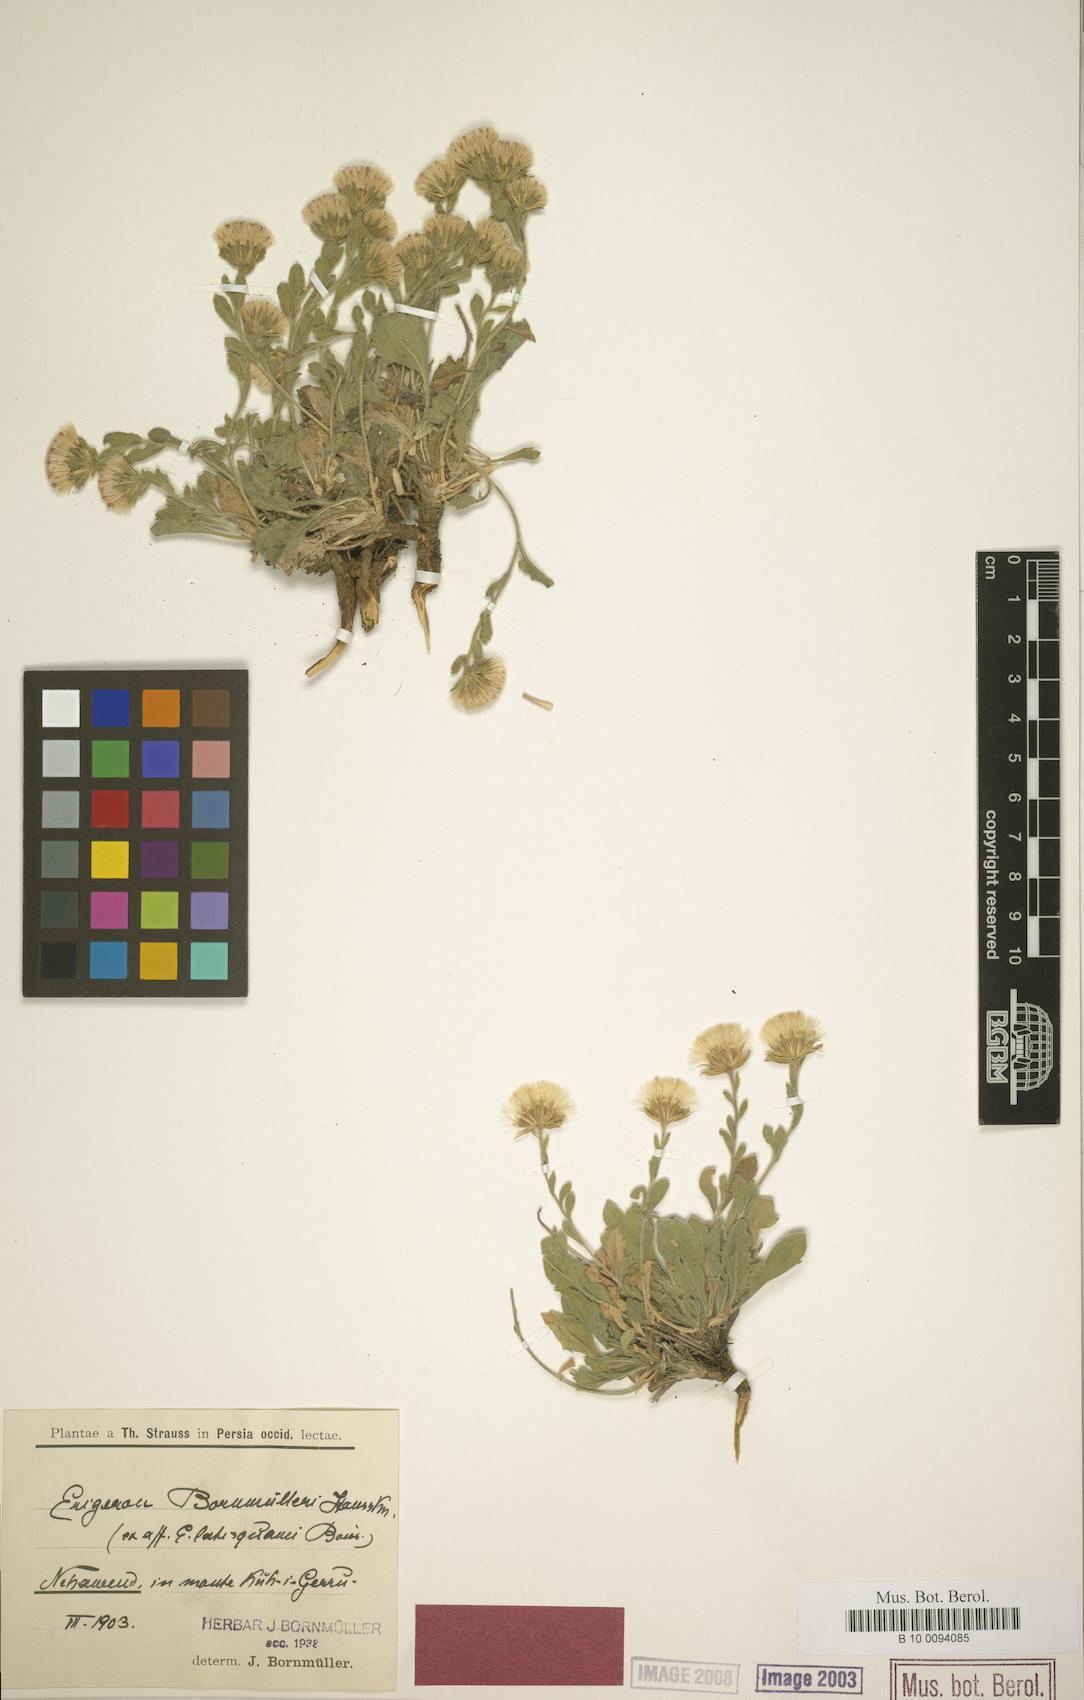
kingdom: Plantae
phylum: Tracheophyta
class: Magnoliopsida
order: Asterales
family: Asteraceae
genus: Symphyotrichum
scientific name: Symphyotrichum ciliatum
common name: Rayless annual aster
